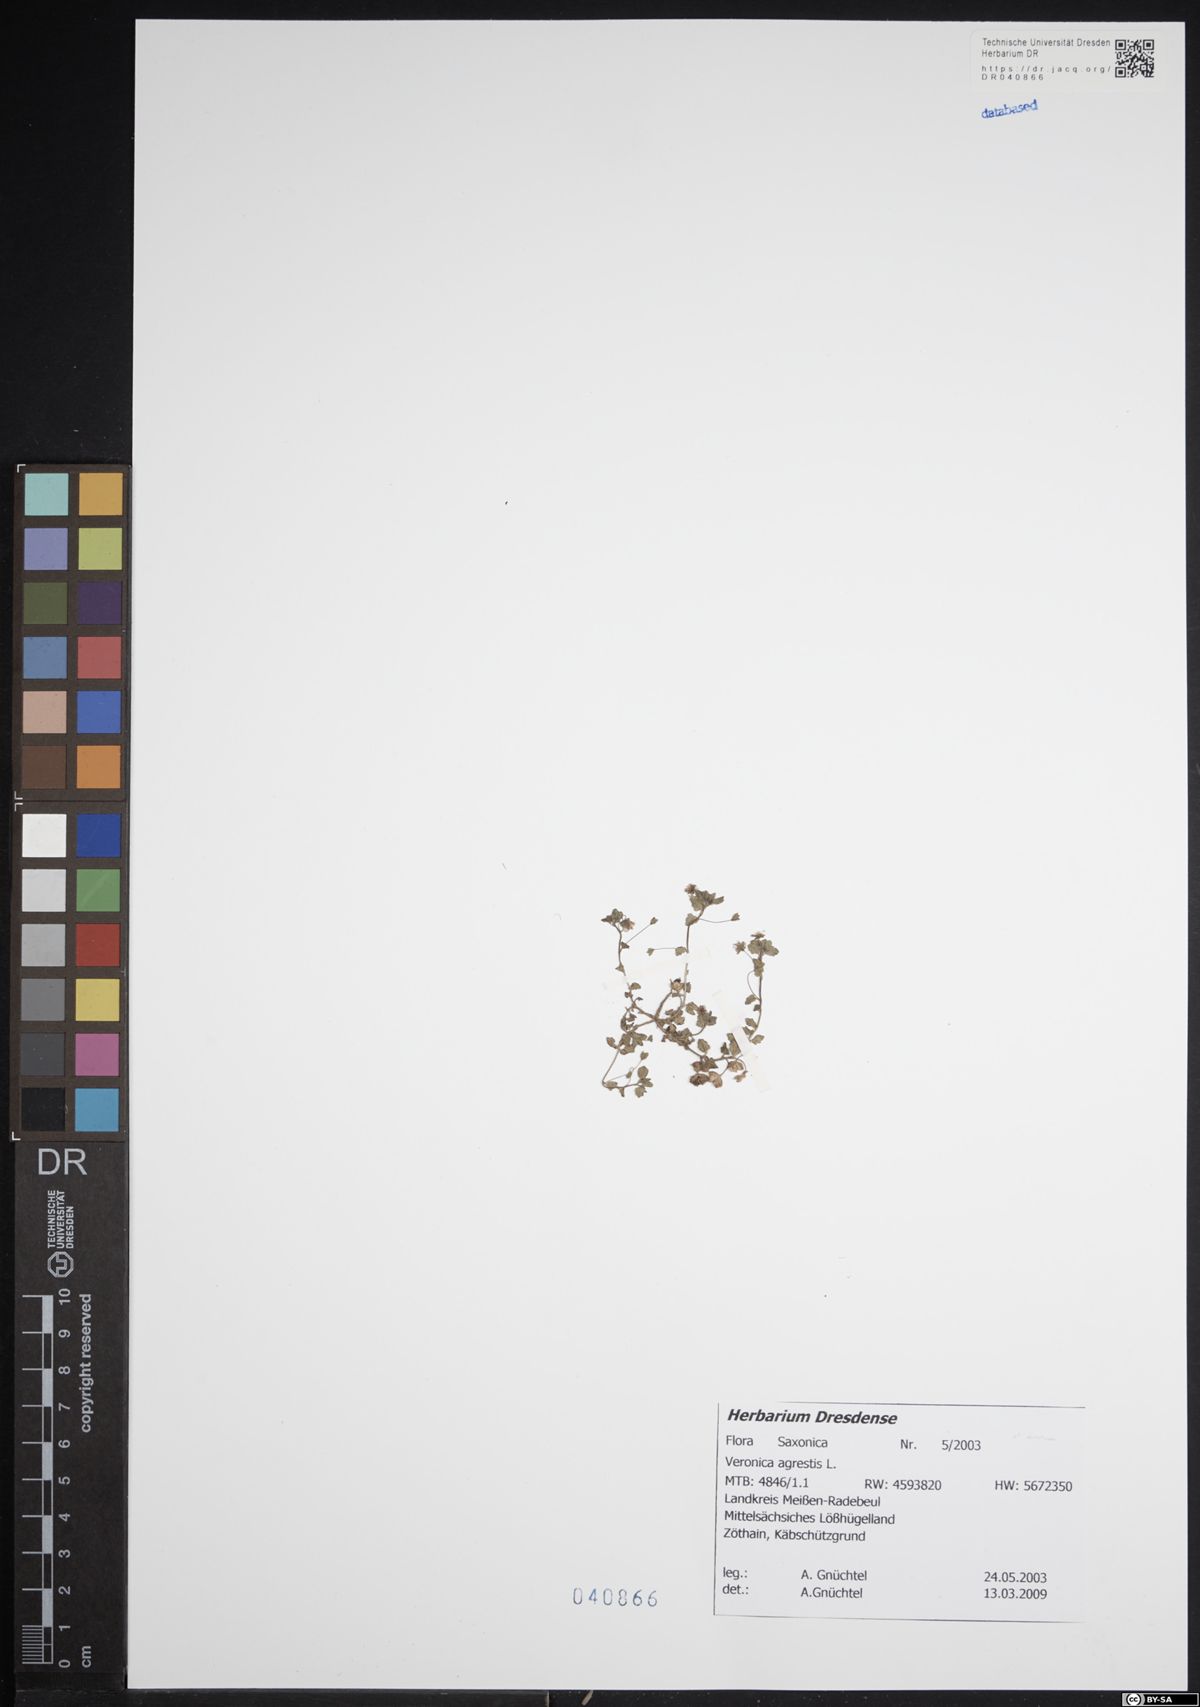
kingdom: Plantae
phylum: Tracheophyta
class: Magnoliopsida
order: Lamiales
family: Plantaginaceae
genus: Veronica
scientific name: Veronica agrestis
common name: Green field-speedwell
